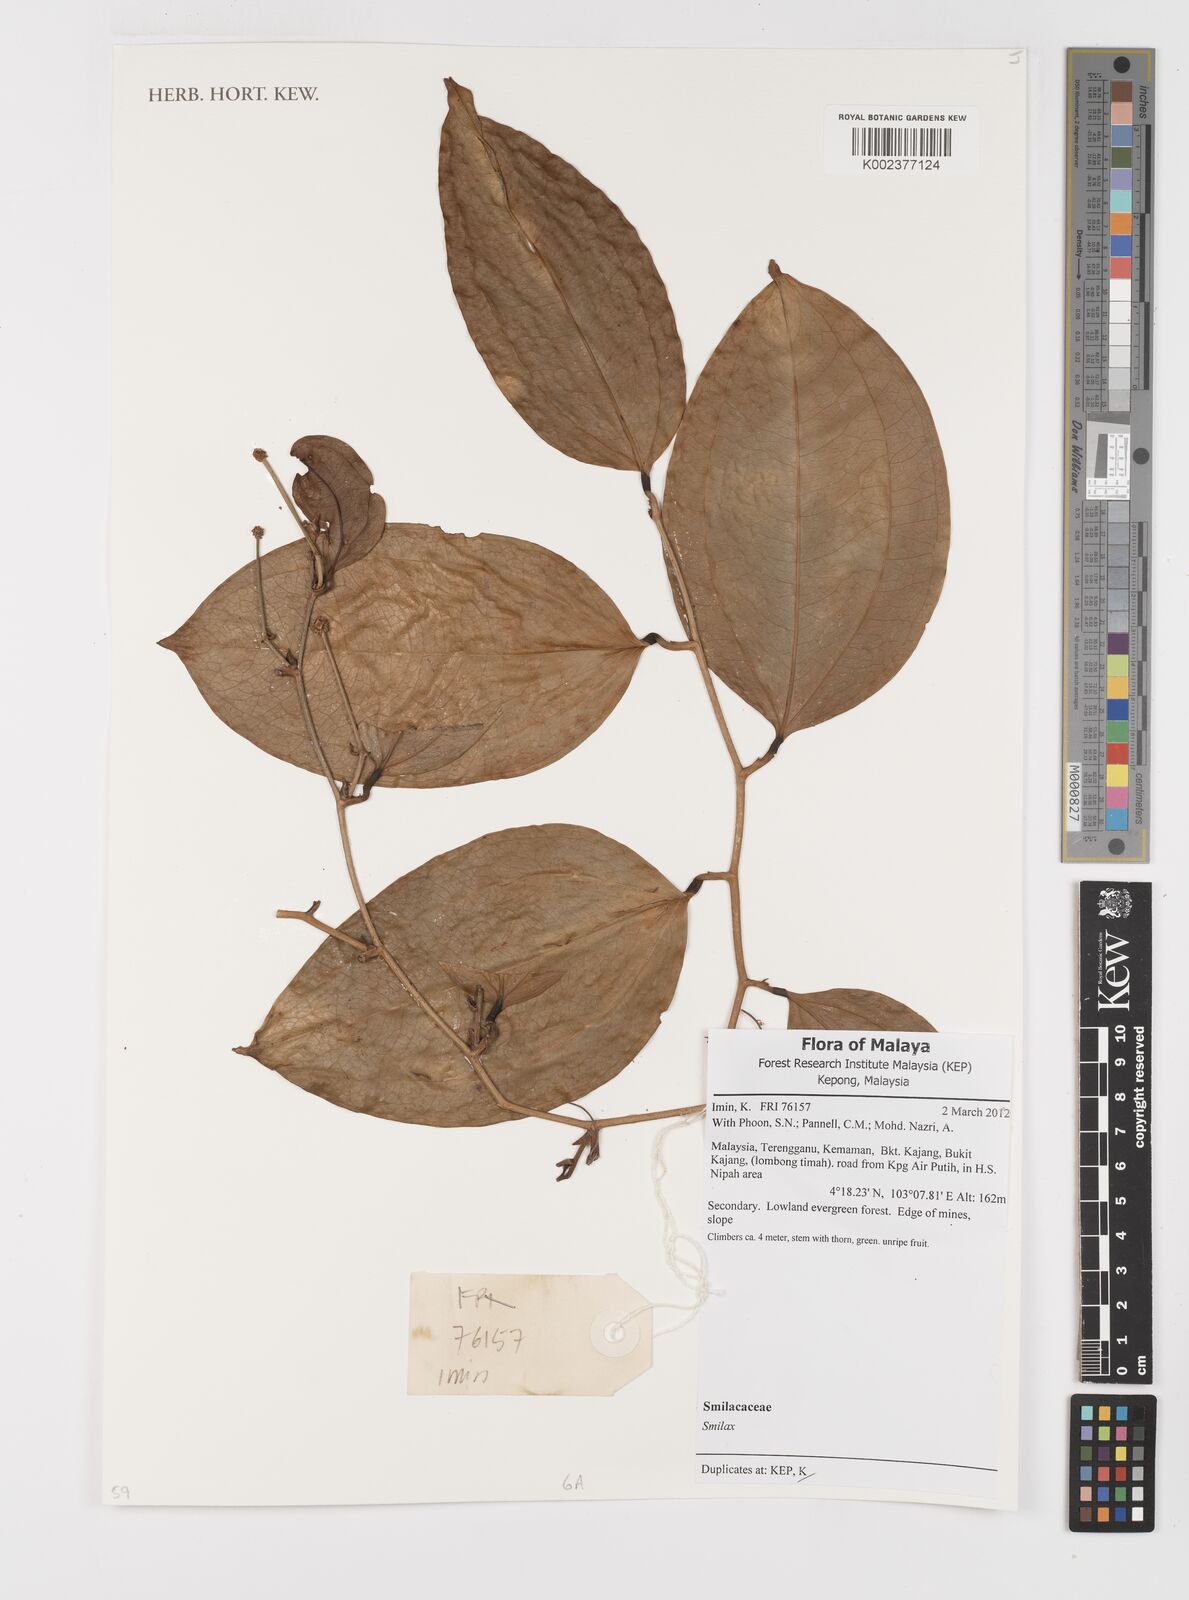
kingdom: Plantae
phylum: Tracheophyta
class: Liliopsida
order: Liliales
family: Smilacaceae
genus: Smilax
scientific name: Smilax
